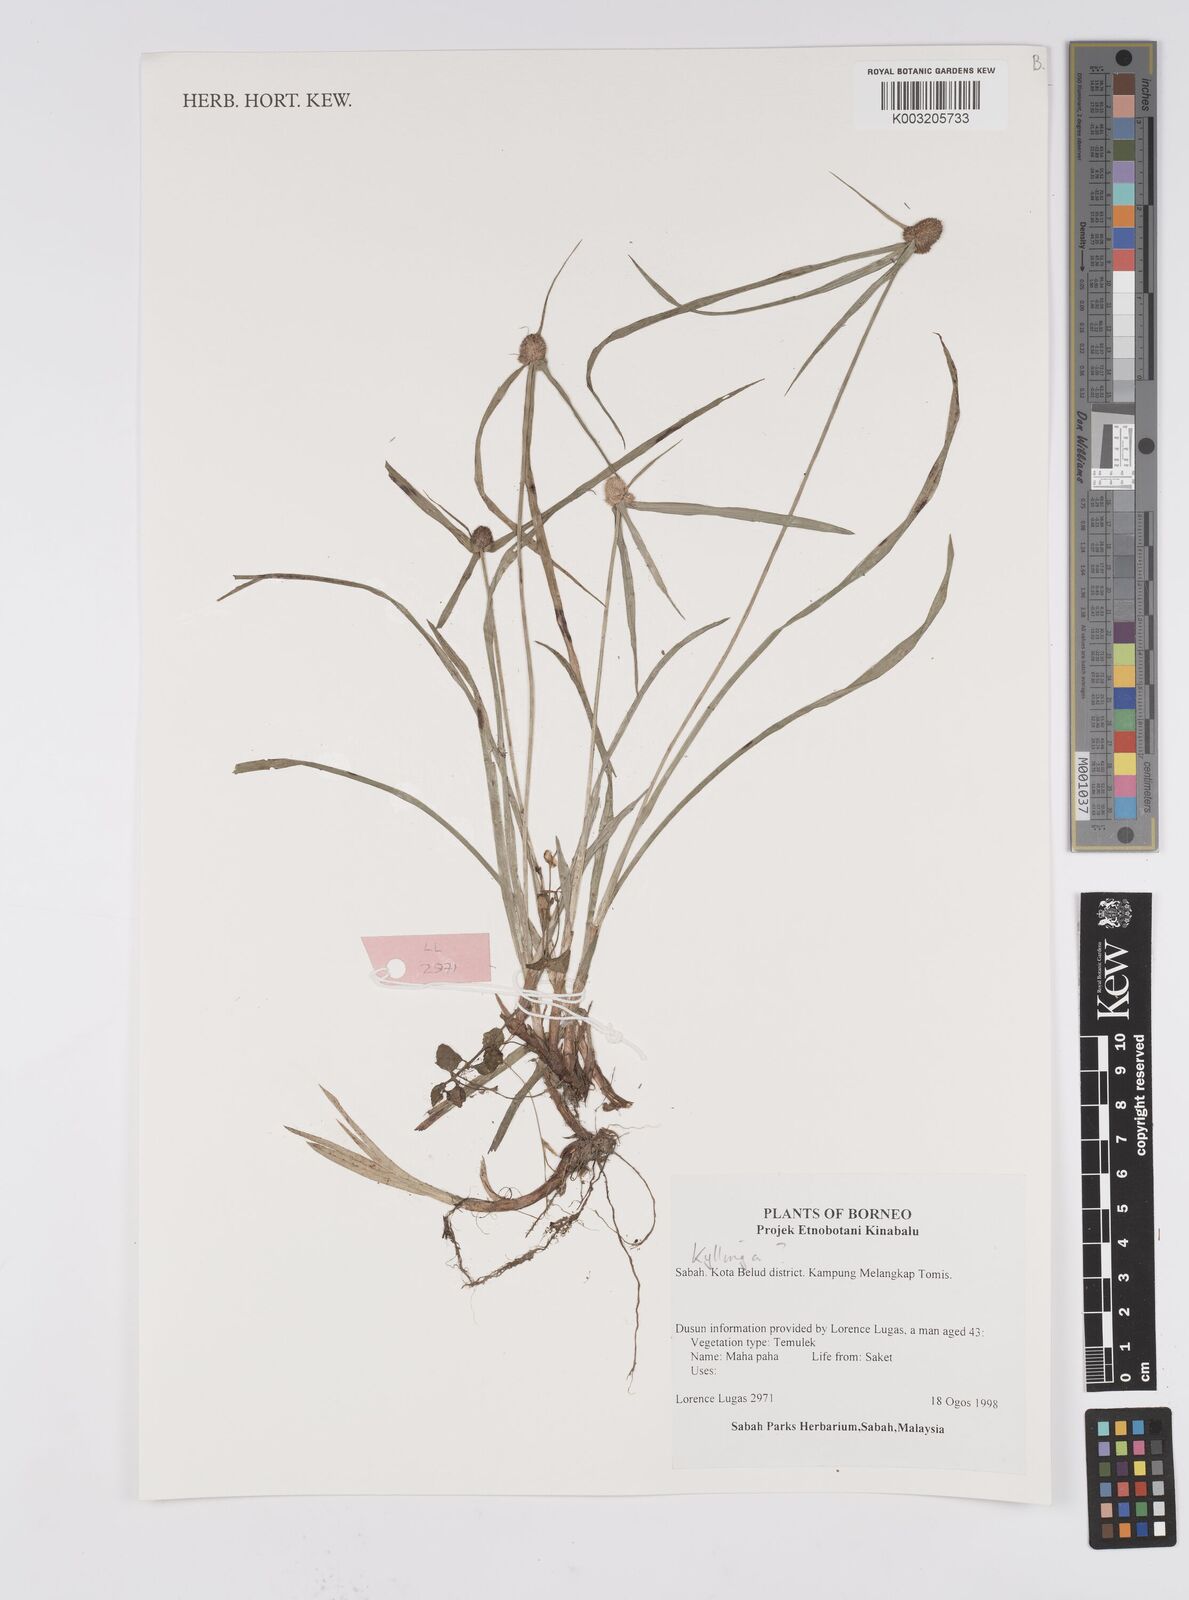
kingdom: Plantae
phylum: Tracheophyta
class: Liliopsida
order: Poales
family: Cyperaceae
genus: Cyperus
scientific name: Cyperus
